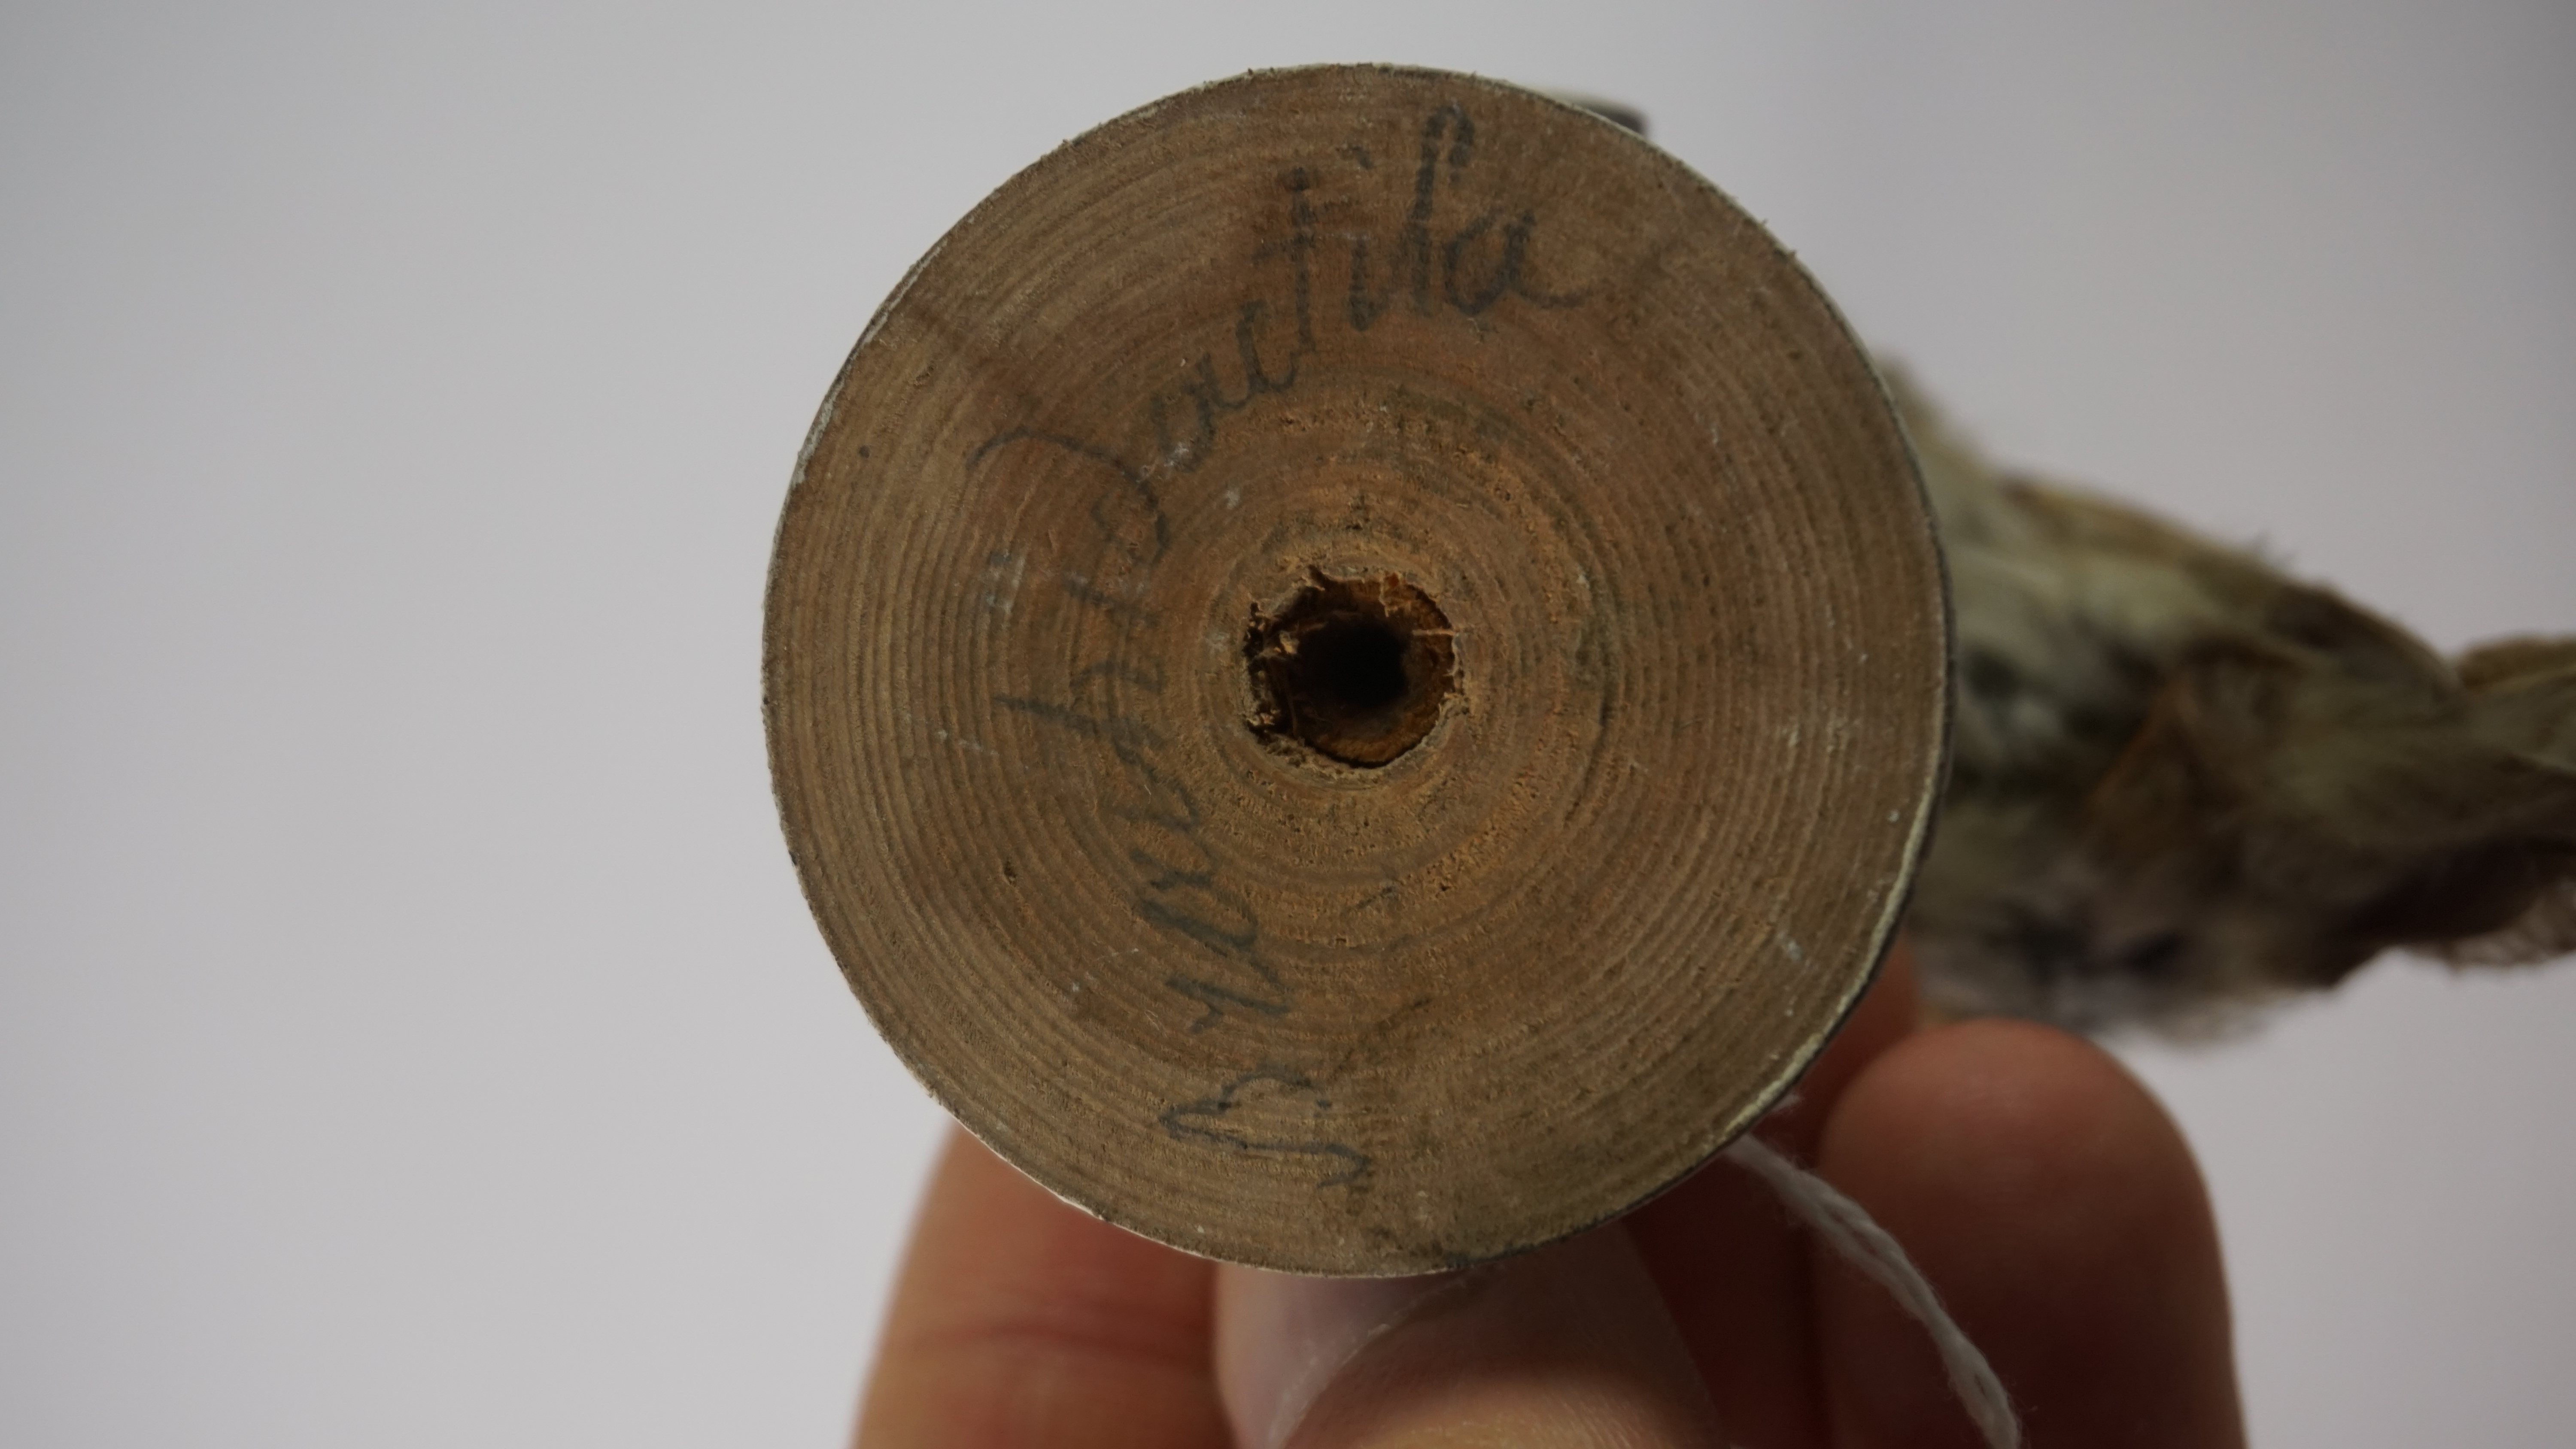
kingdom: Animalia
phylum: Chordata
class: Aves
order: Passeriformes
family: Certhiidae
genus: Certhia
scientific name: Certhia familiaris
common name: Eurasian treecreeper
